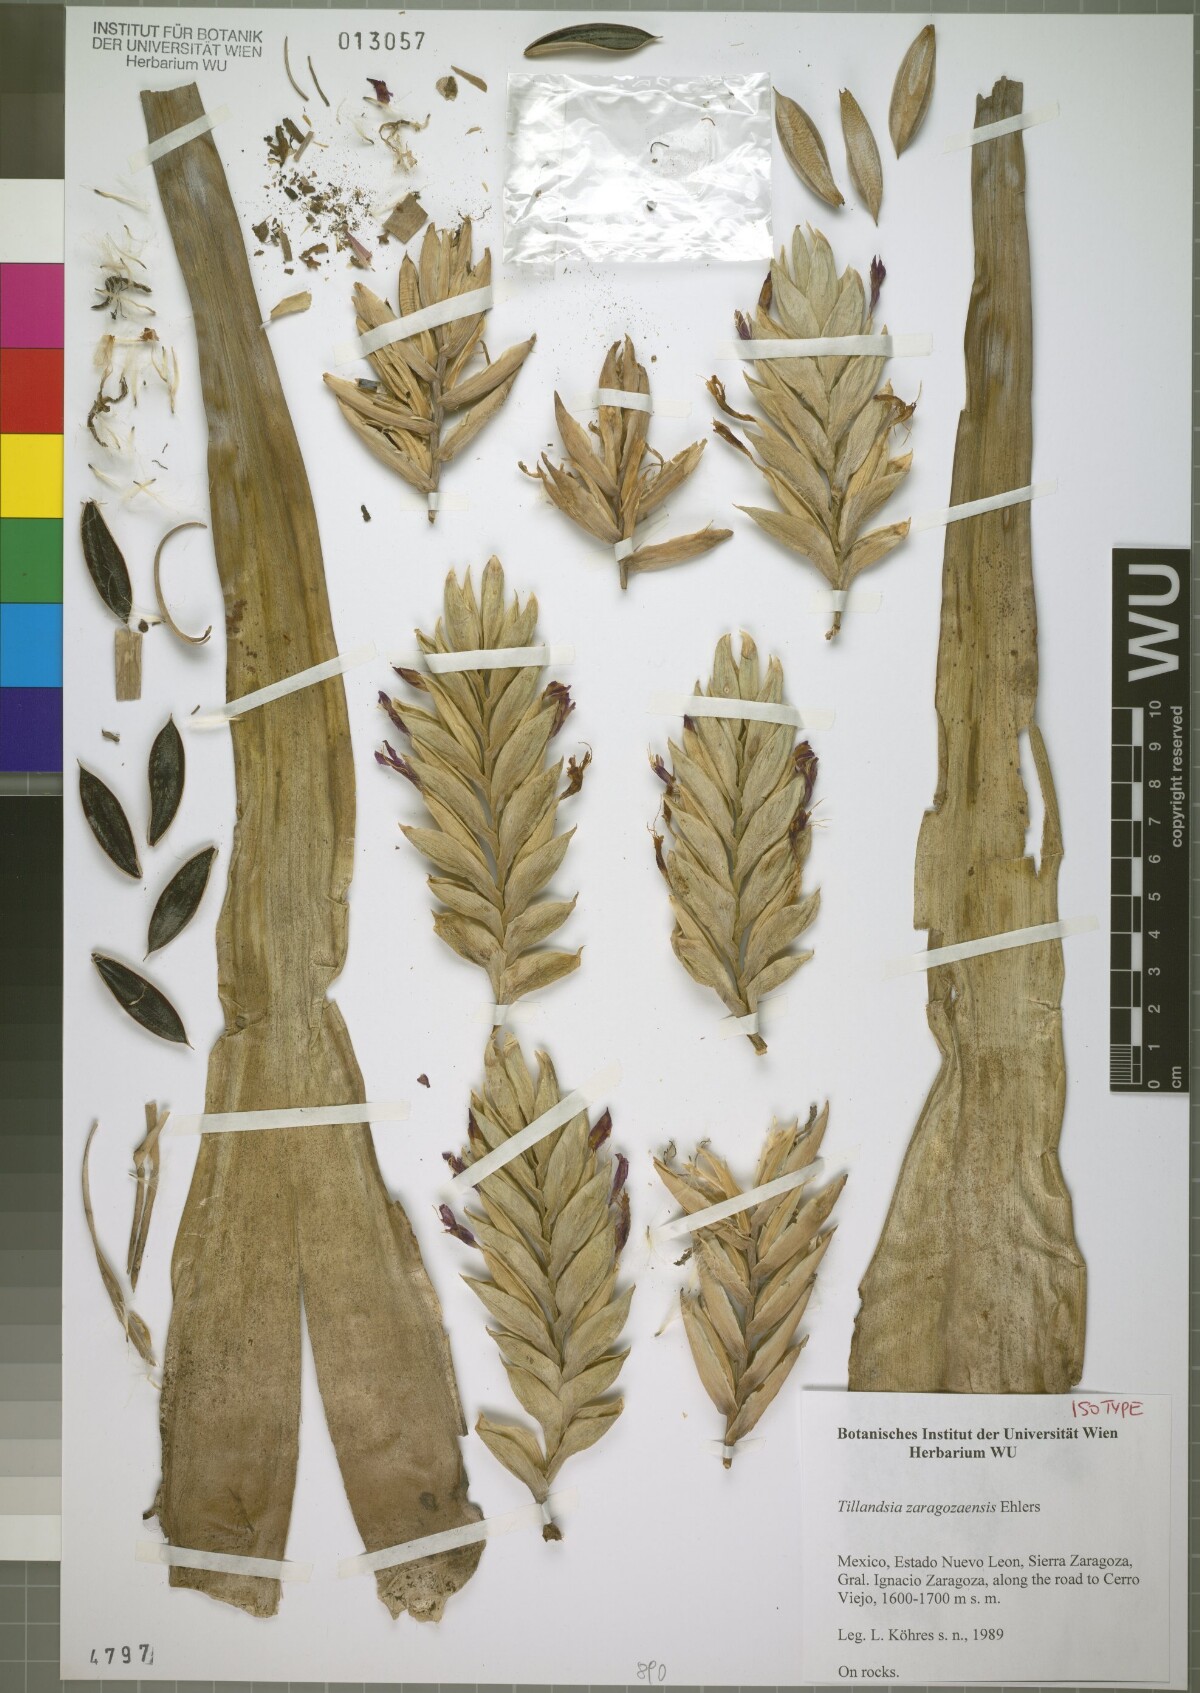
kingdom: Plantae
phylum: Tracheophyta
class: Liliopsida
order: Poales
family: Bromeliaceae
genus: Tillandsia
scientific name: Tillandsia zaragozaensis
